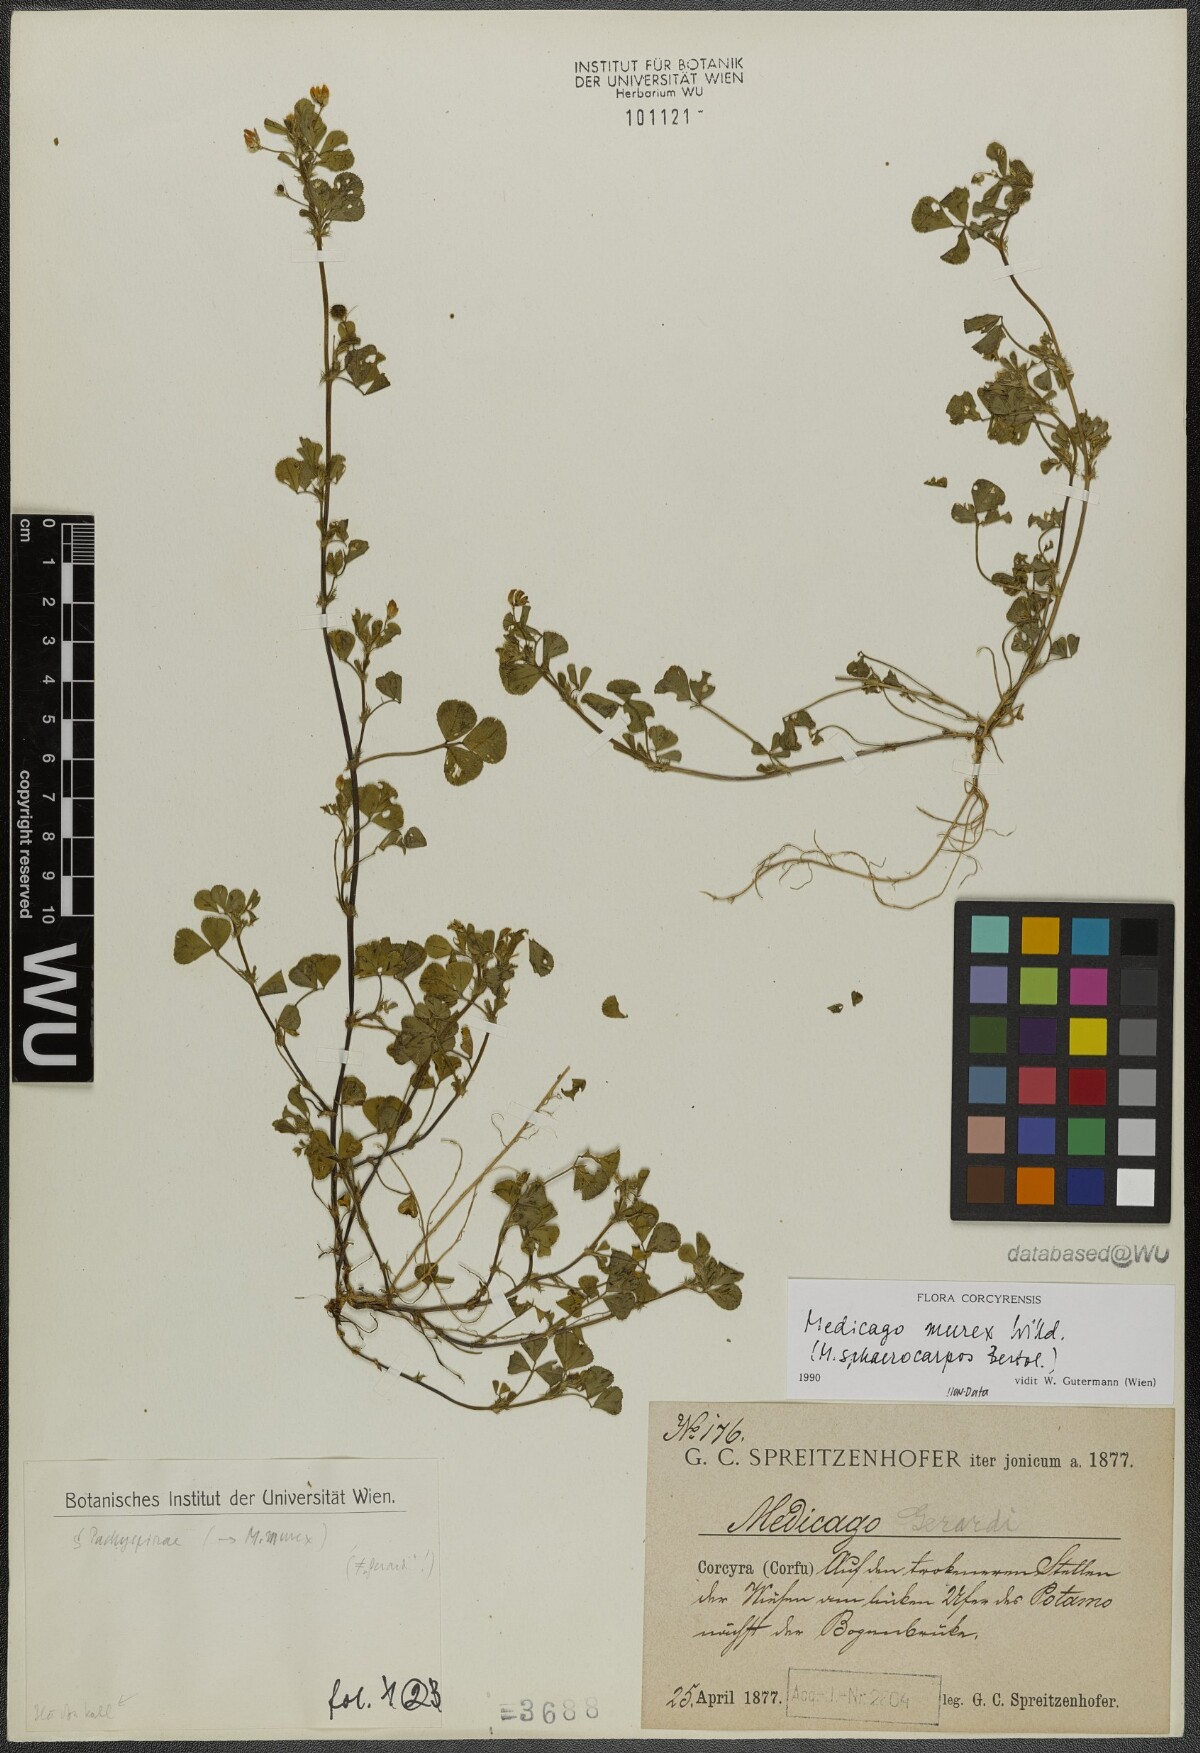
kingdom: Plantae
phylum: Tracheophyta
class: Magnoliopsida
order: Fabales
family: Fabaceae
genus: Medicago
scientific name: Medicago murex
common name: Murex
